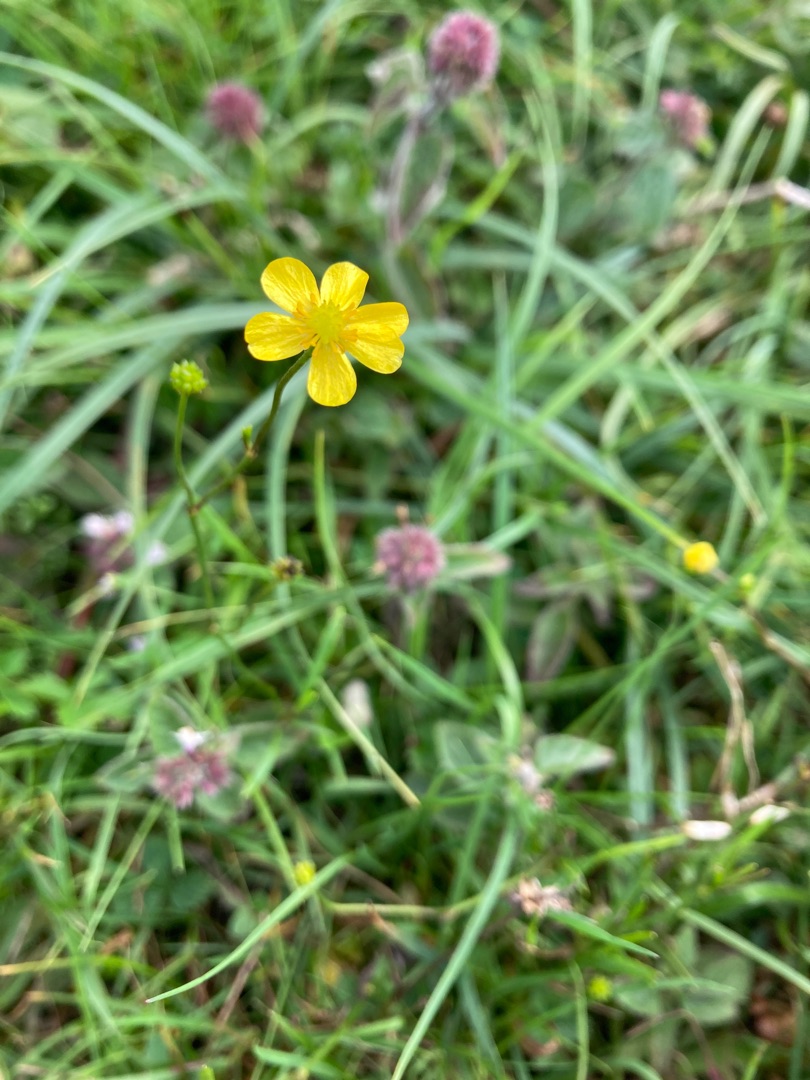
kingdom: Plantae
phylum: Tracheophyta
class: Magnoliopsida
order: Ranunculales
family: Ranunculaceae
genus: Ranunculus
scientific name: Ranunculus flammula
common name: Kær-ranunkel
